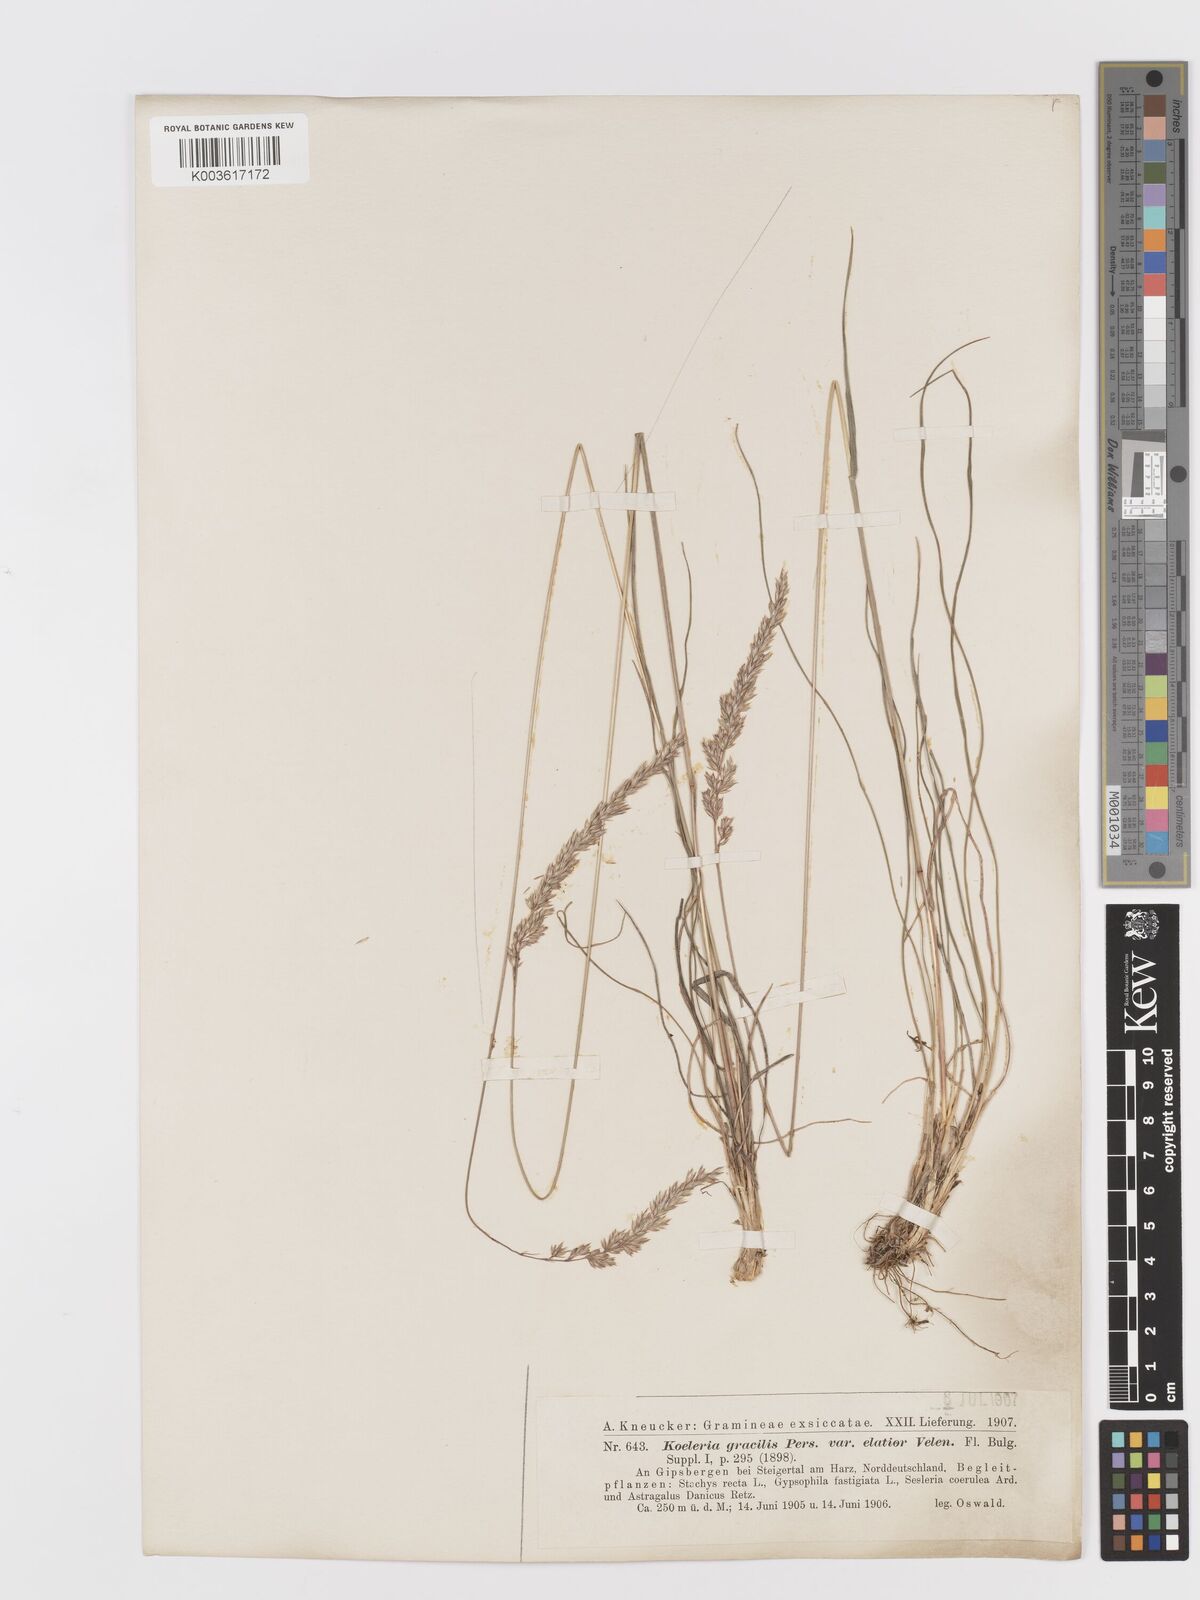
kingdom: Plantae
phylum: Tracheophyta
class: Liliopsida
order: Poales
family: Poaceae
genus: Koeleria
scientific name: Koeleria macrantha
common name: Crested hair-grass
